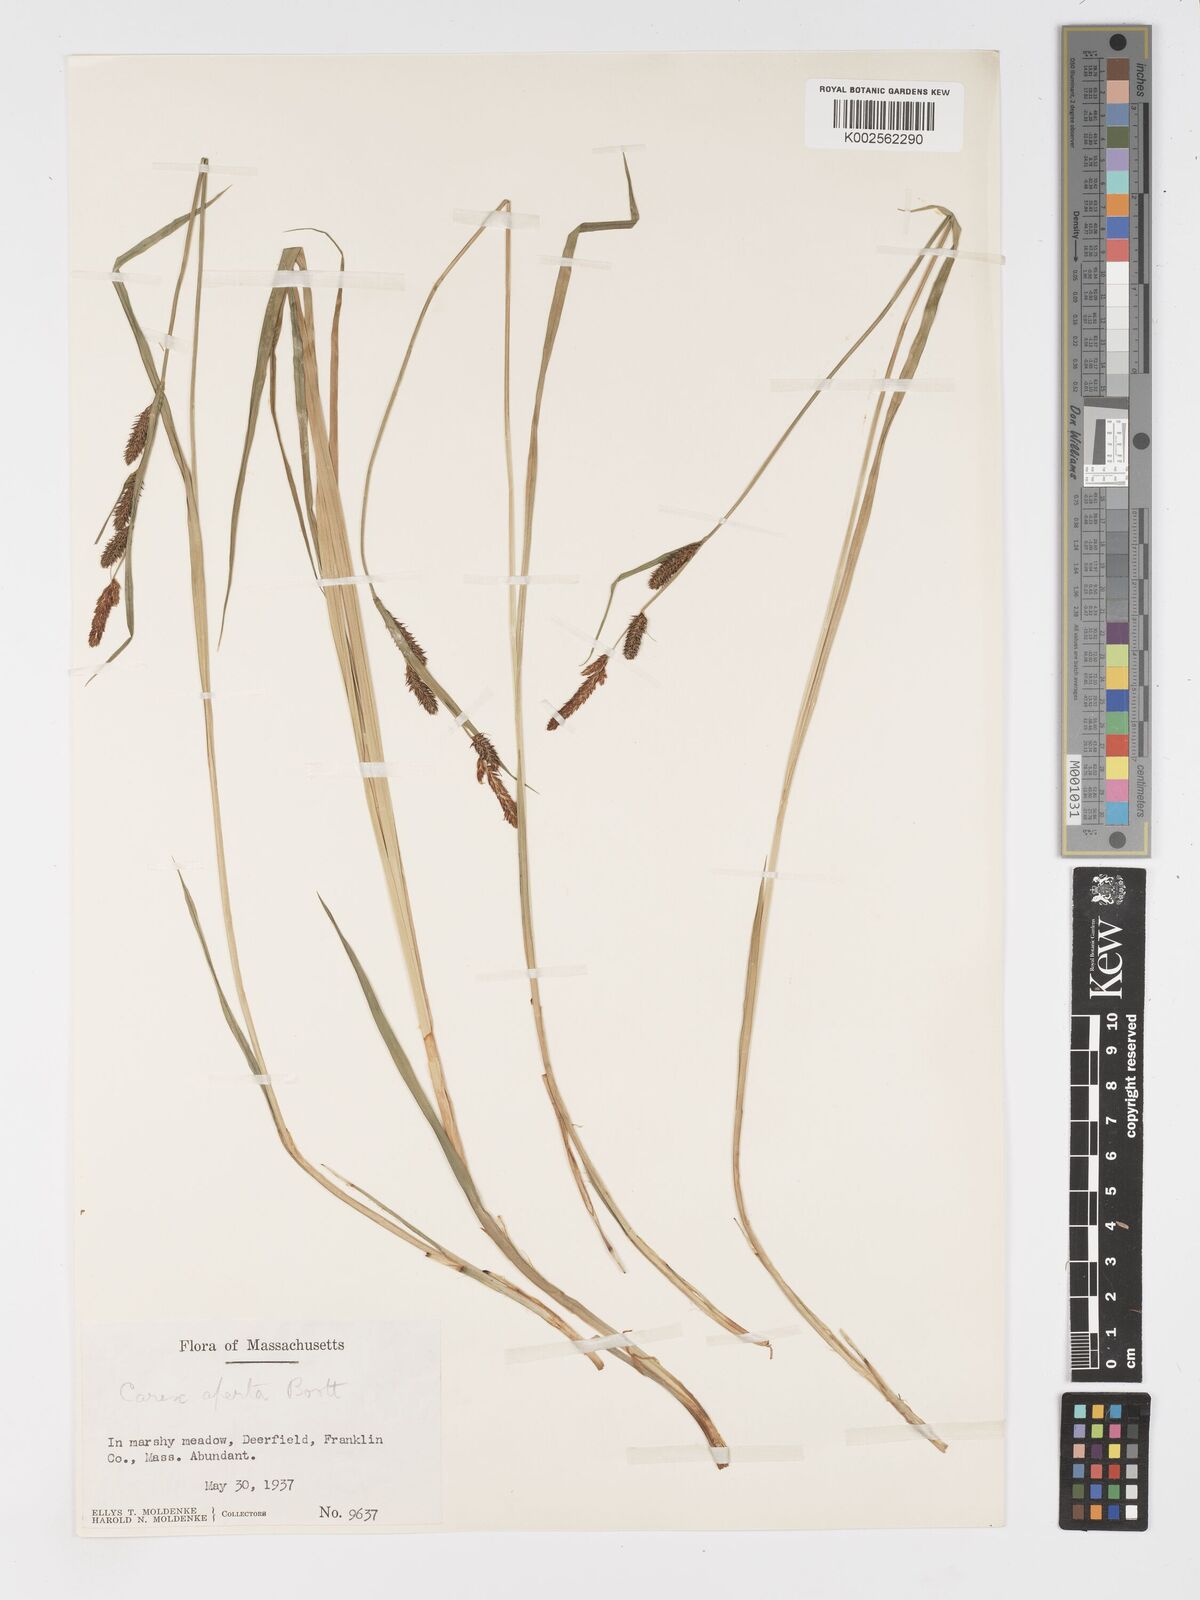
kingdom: Plantae
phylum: Tracheophyta
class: Liliopsida
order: Poales
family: Cyperaceae
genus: Carex
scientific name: Carex aperta
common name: Columbia sedge
